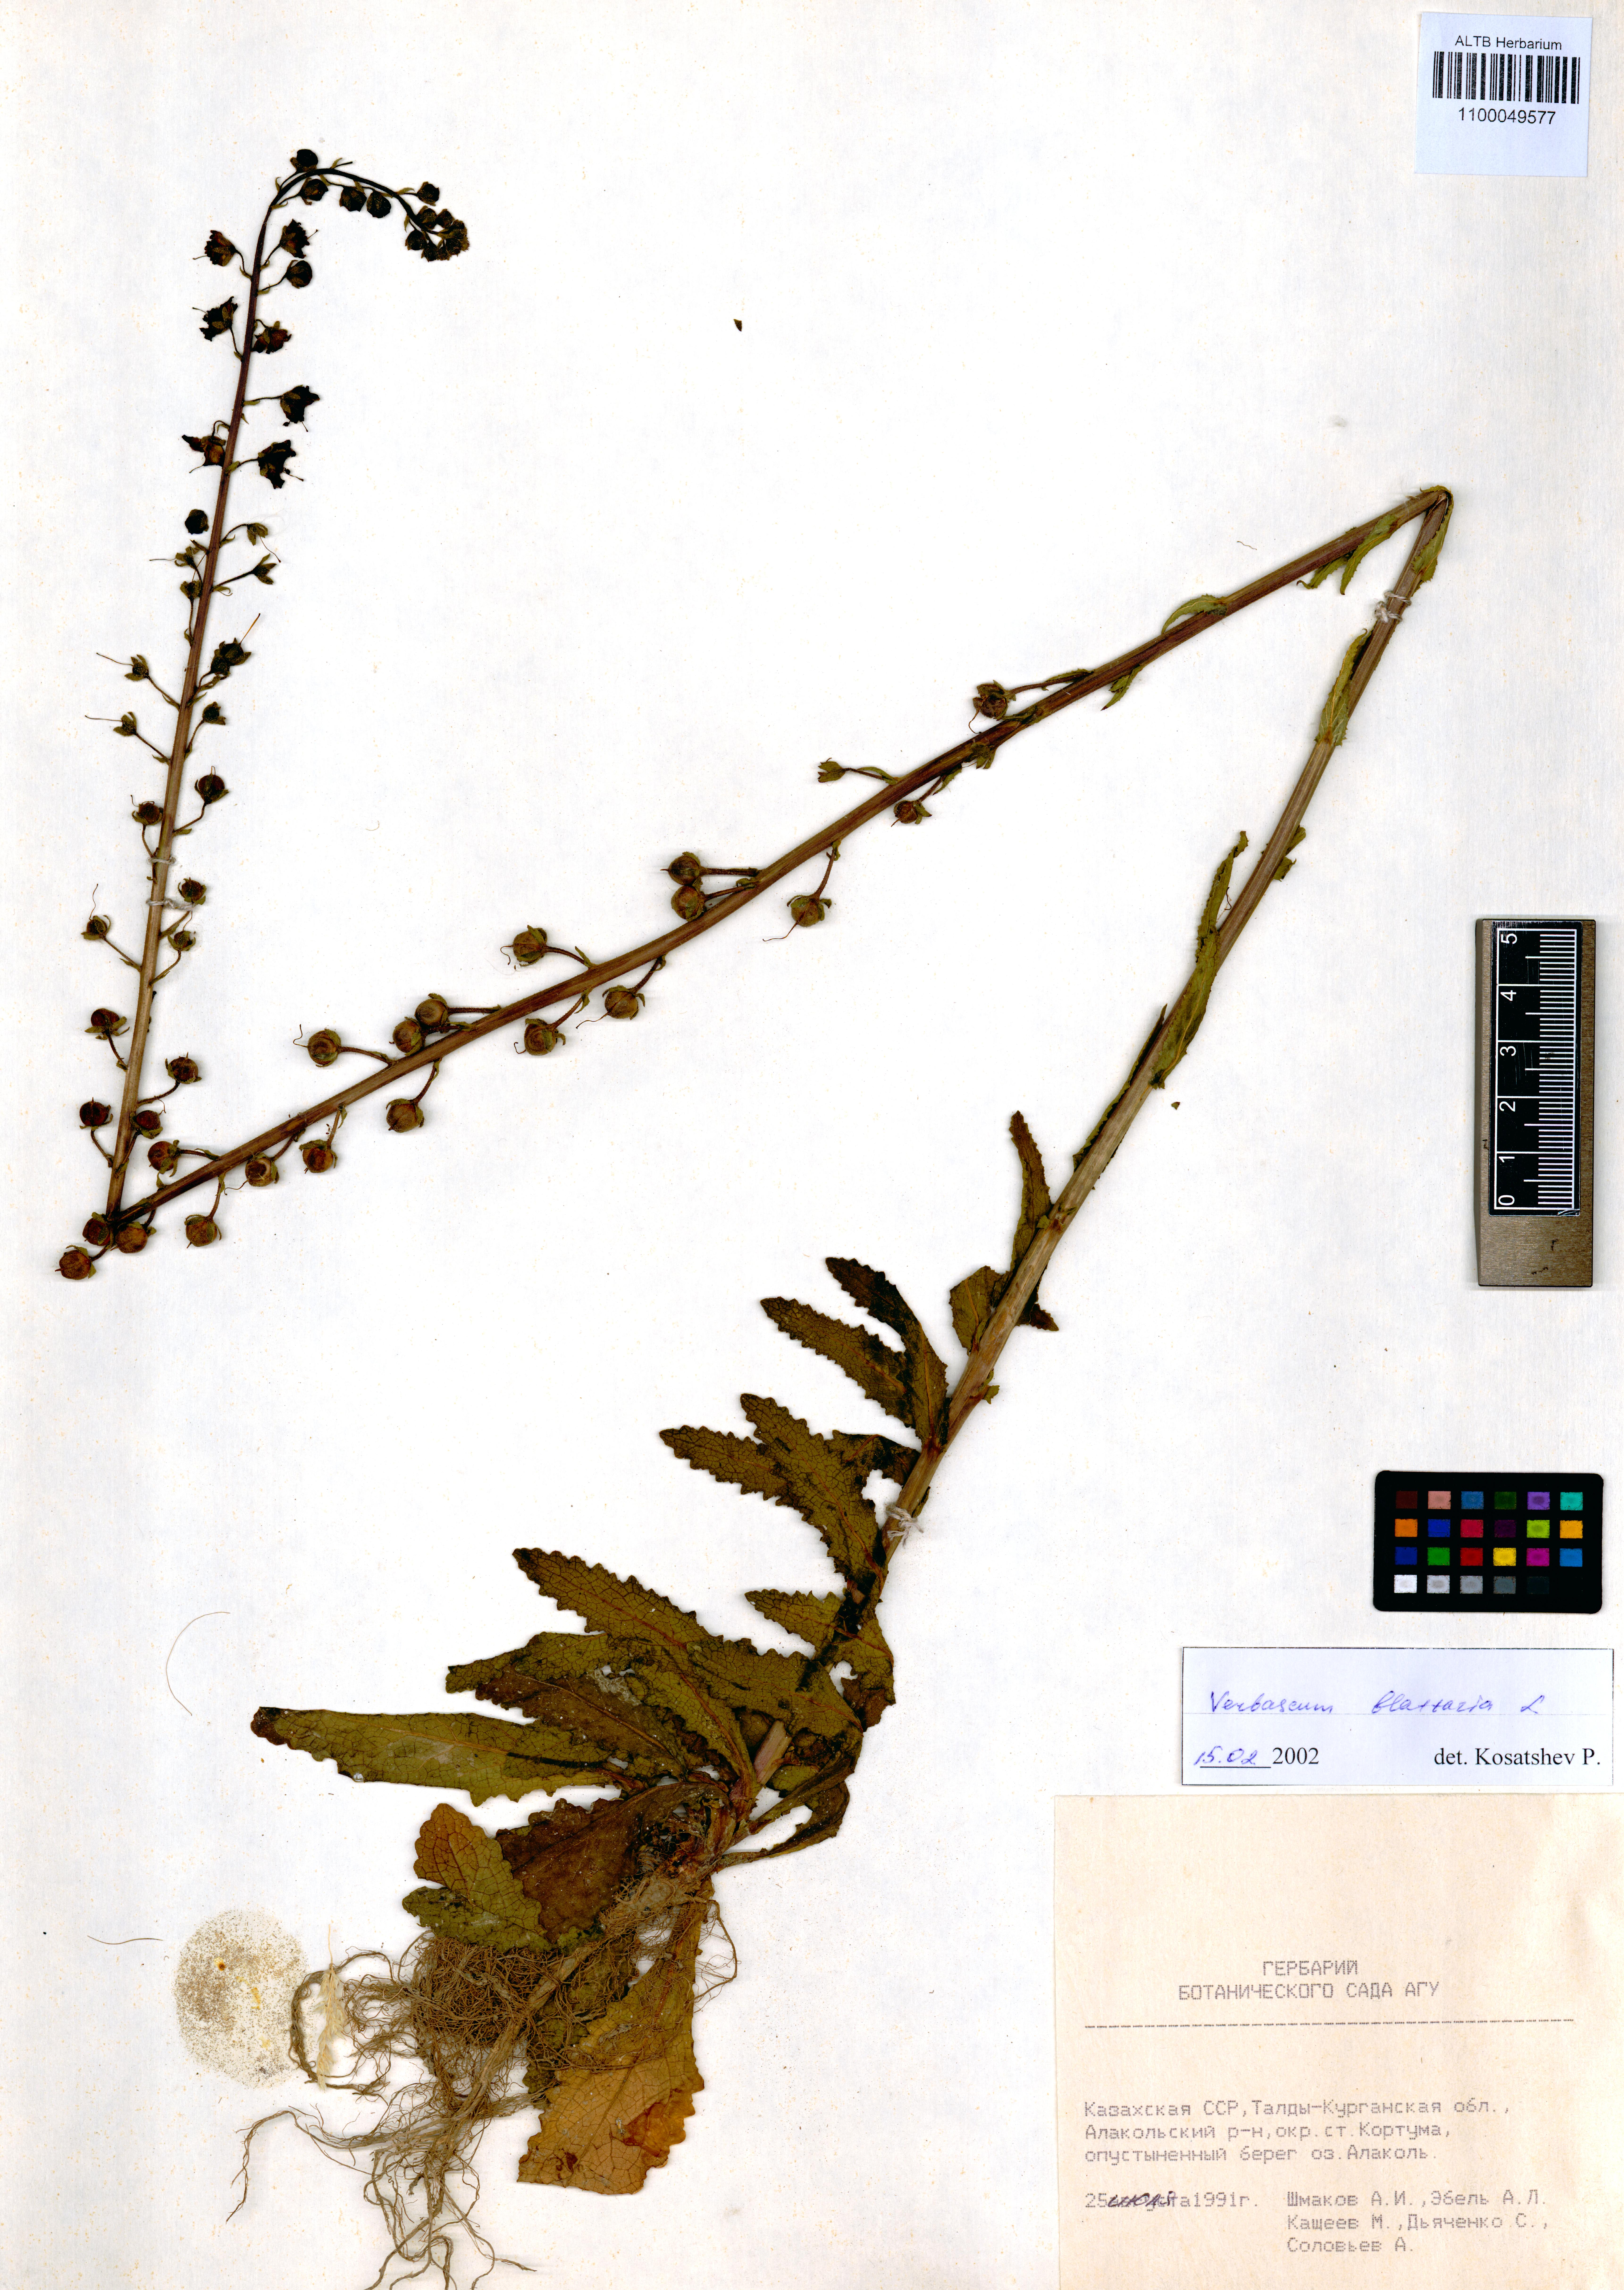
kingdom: Plantae
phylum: Tracheophyta
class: Magnoliopsida
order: Lamiales
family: Scrophulariaceae
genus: Verbascum
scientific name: Verbascum blattaria
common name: Moth mullein
